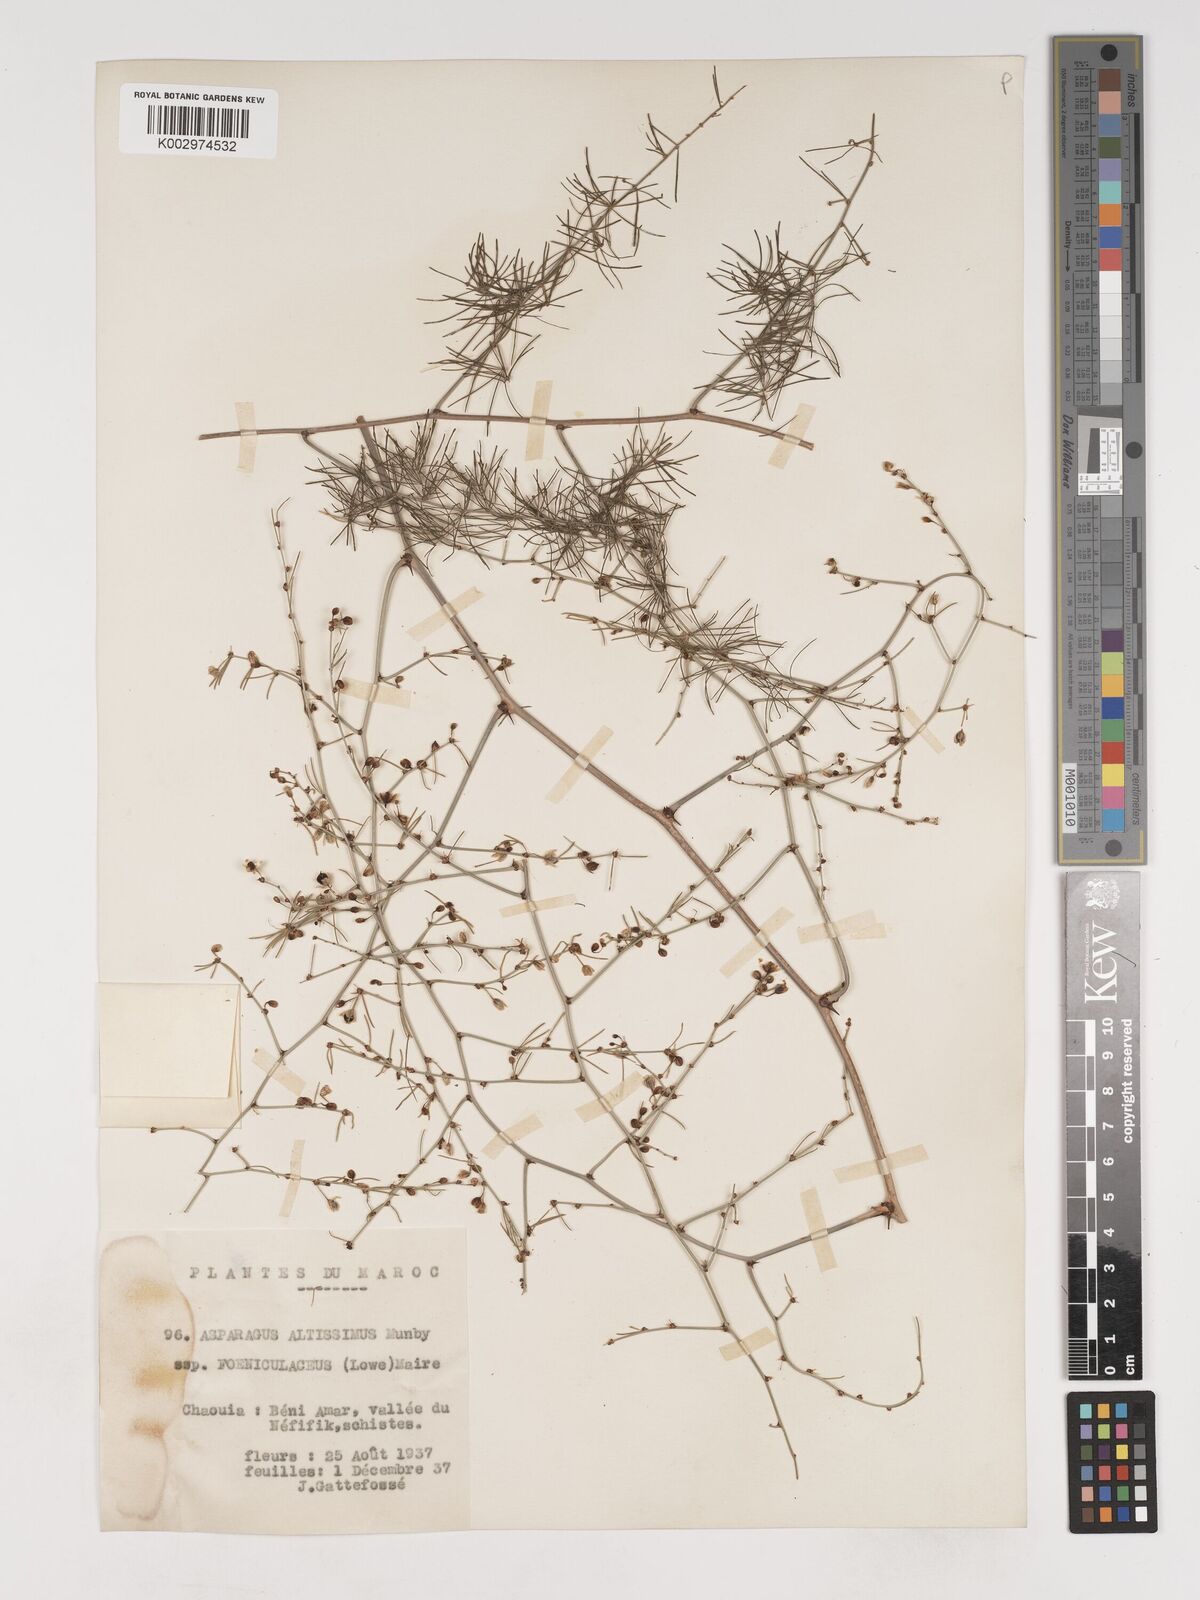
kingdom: Plantae
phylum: Tracheophyta
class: Liliopsida
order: Asparagales
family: Asparagaceae
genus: Asparagus
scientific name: Asparagus altissimus
